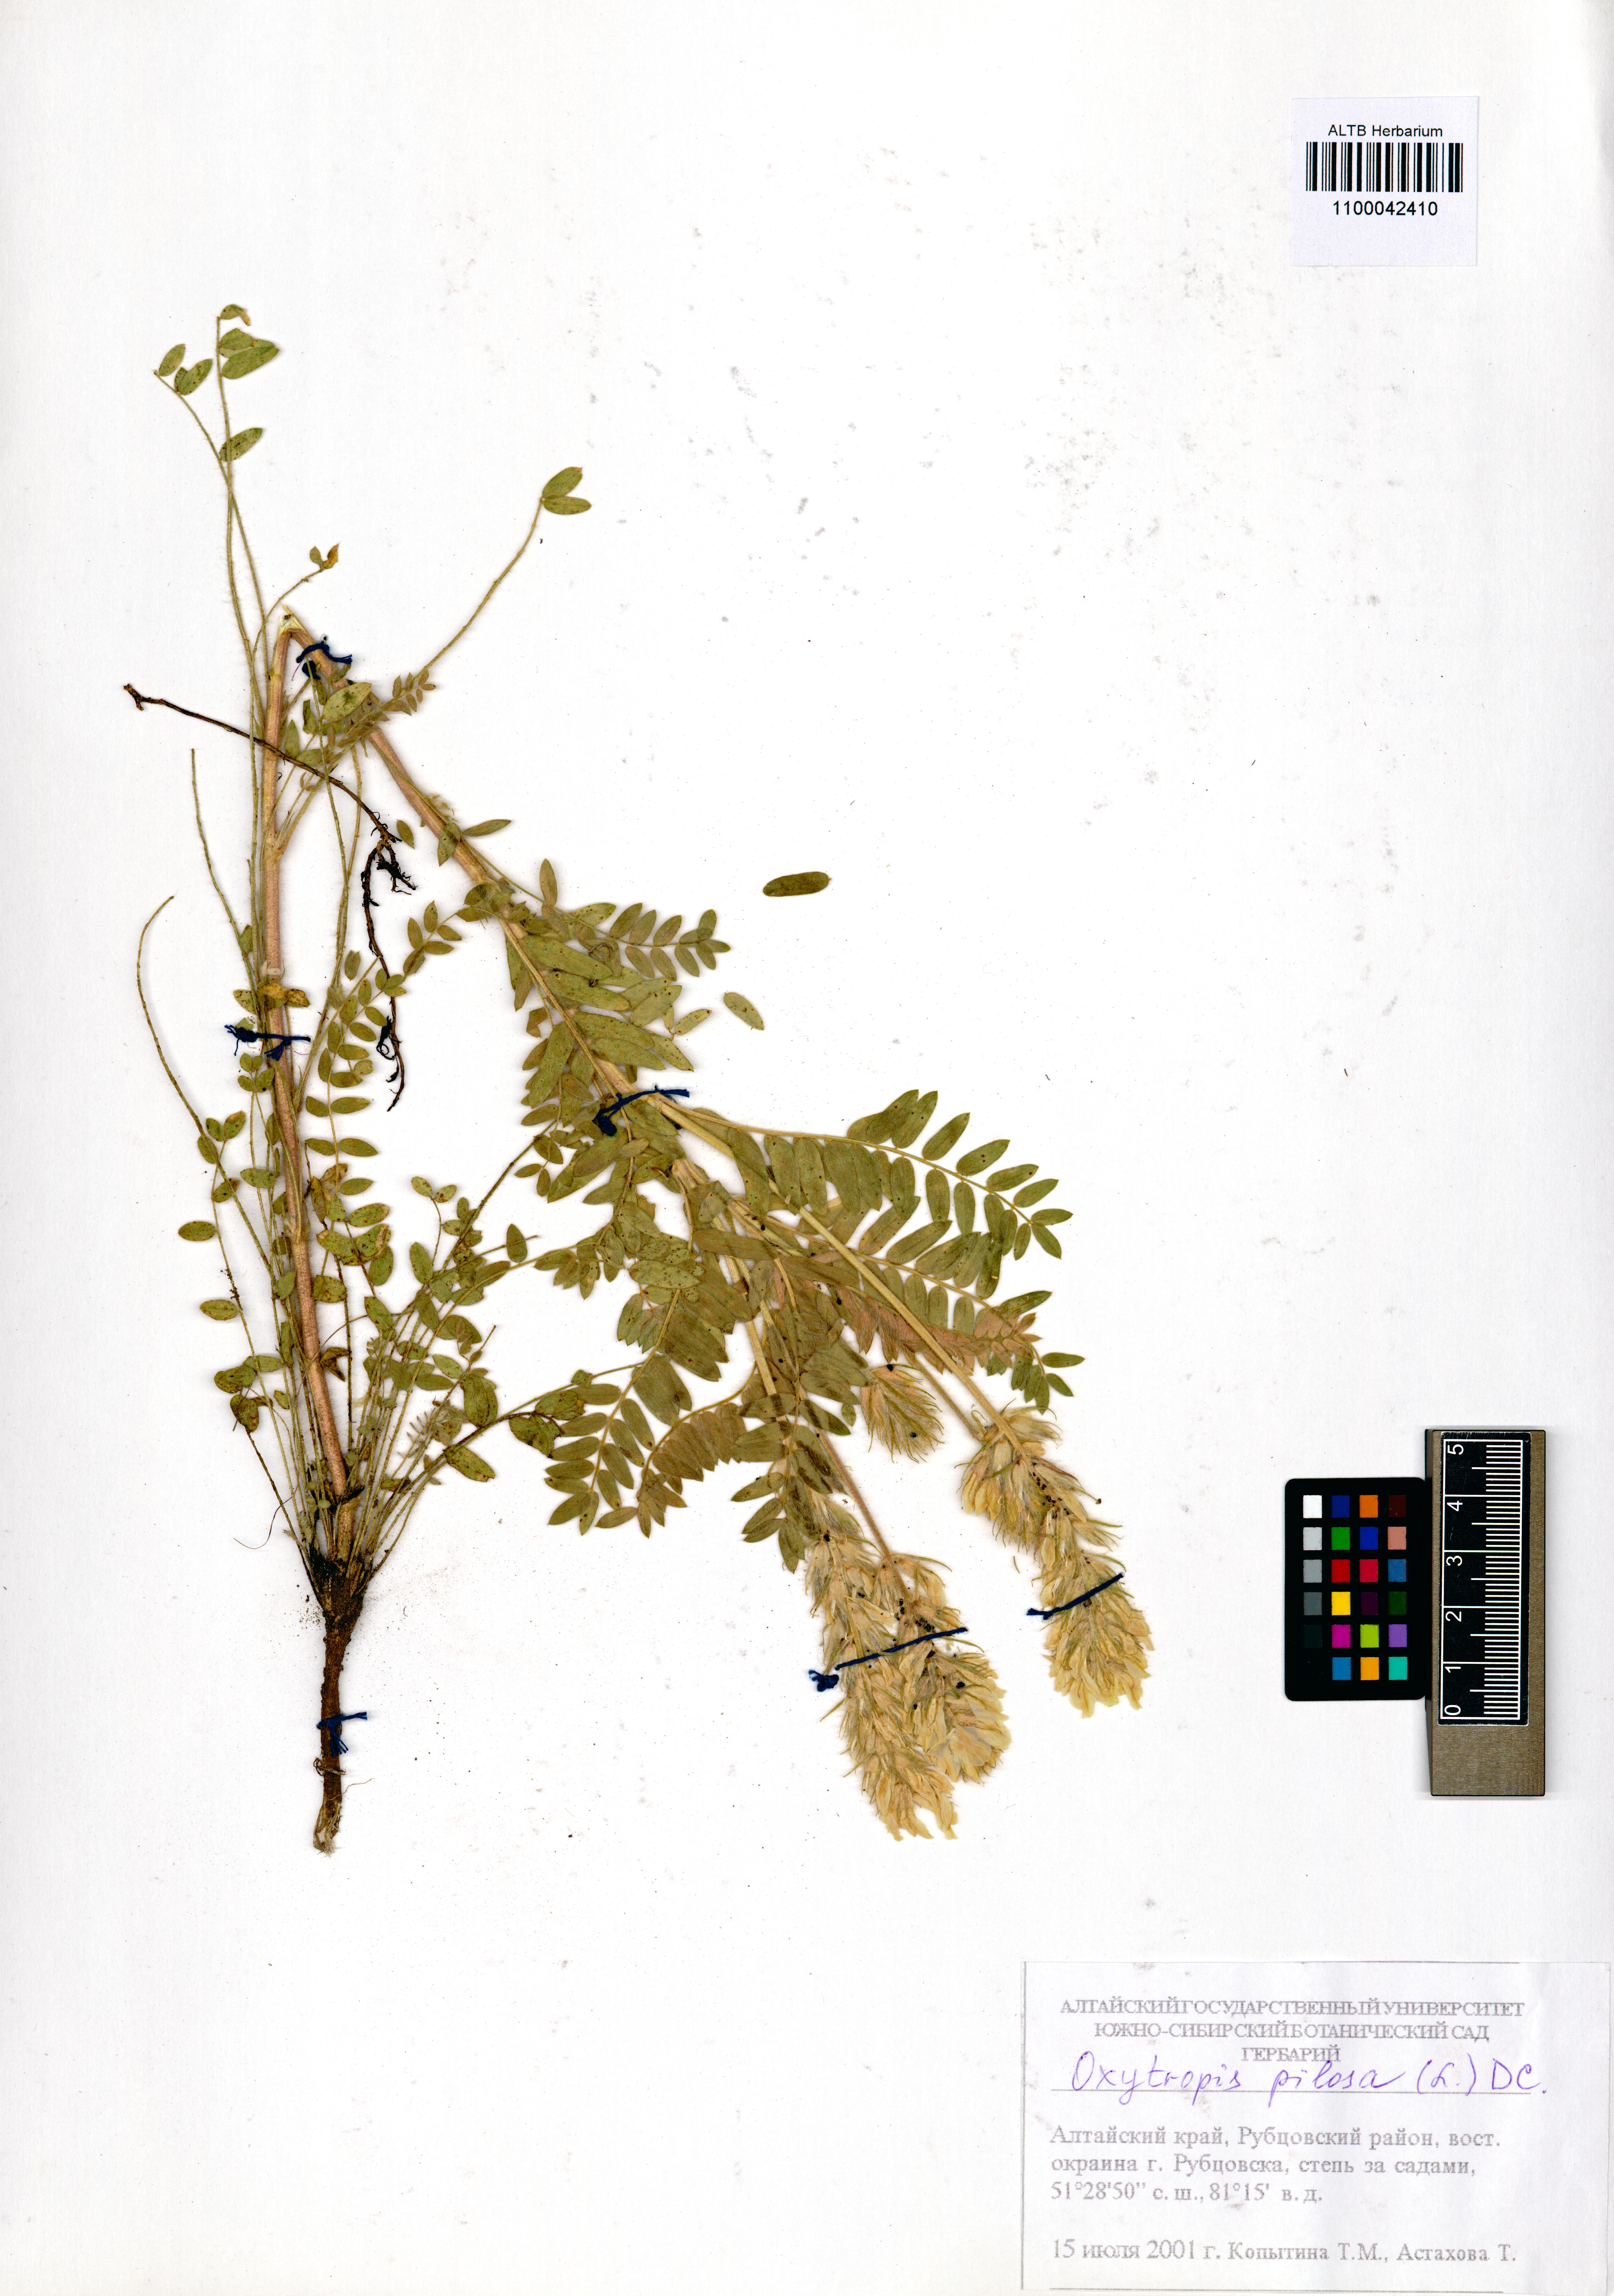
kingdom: Plantae
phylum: Tracheophyta
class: Magnoliopsida
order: Fabales
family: Fabaceae
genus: Oxytropis
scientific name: Oxytropis pilosa
